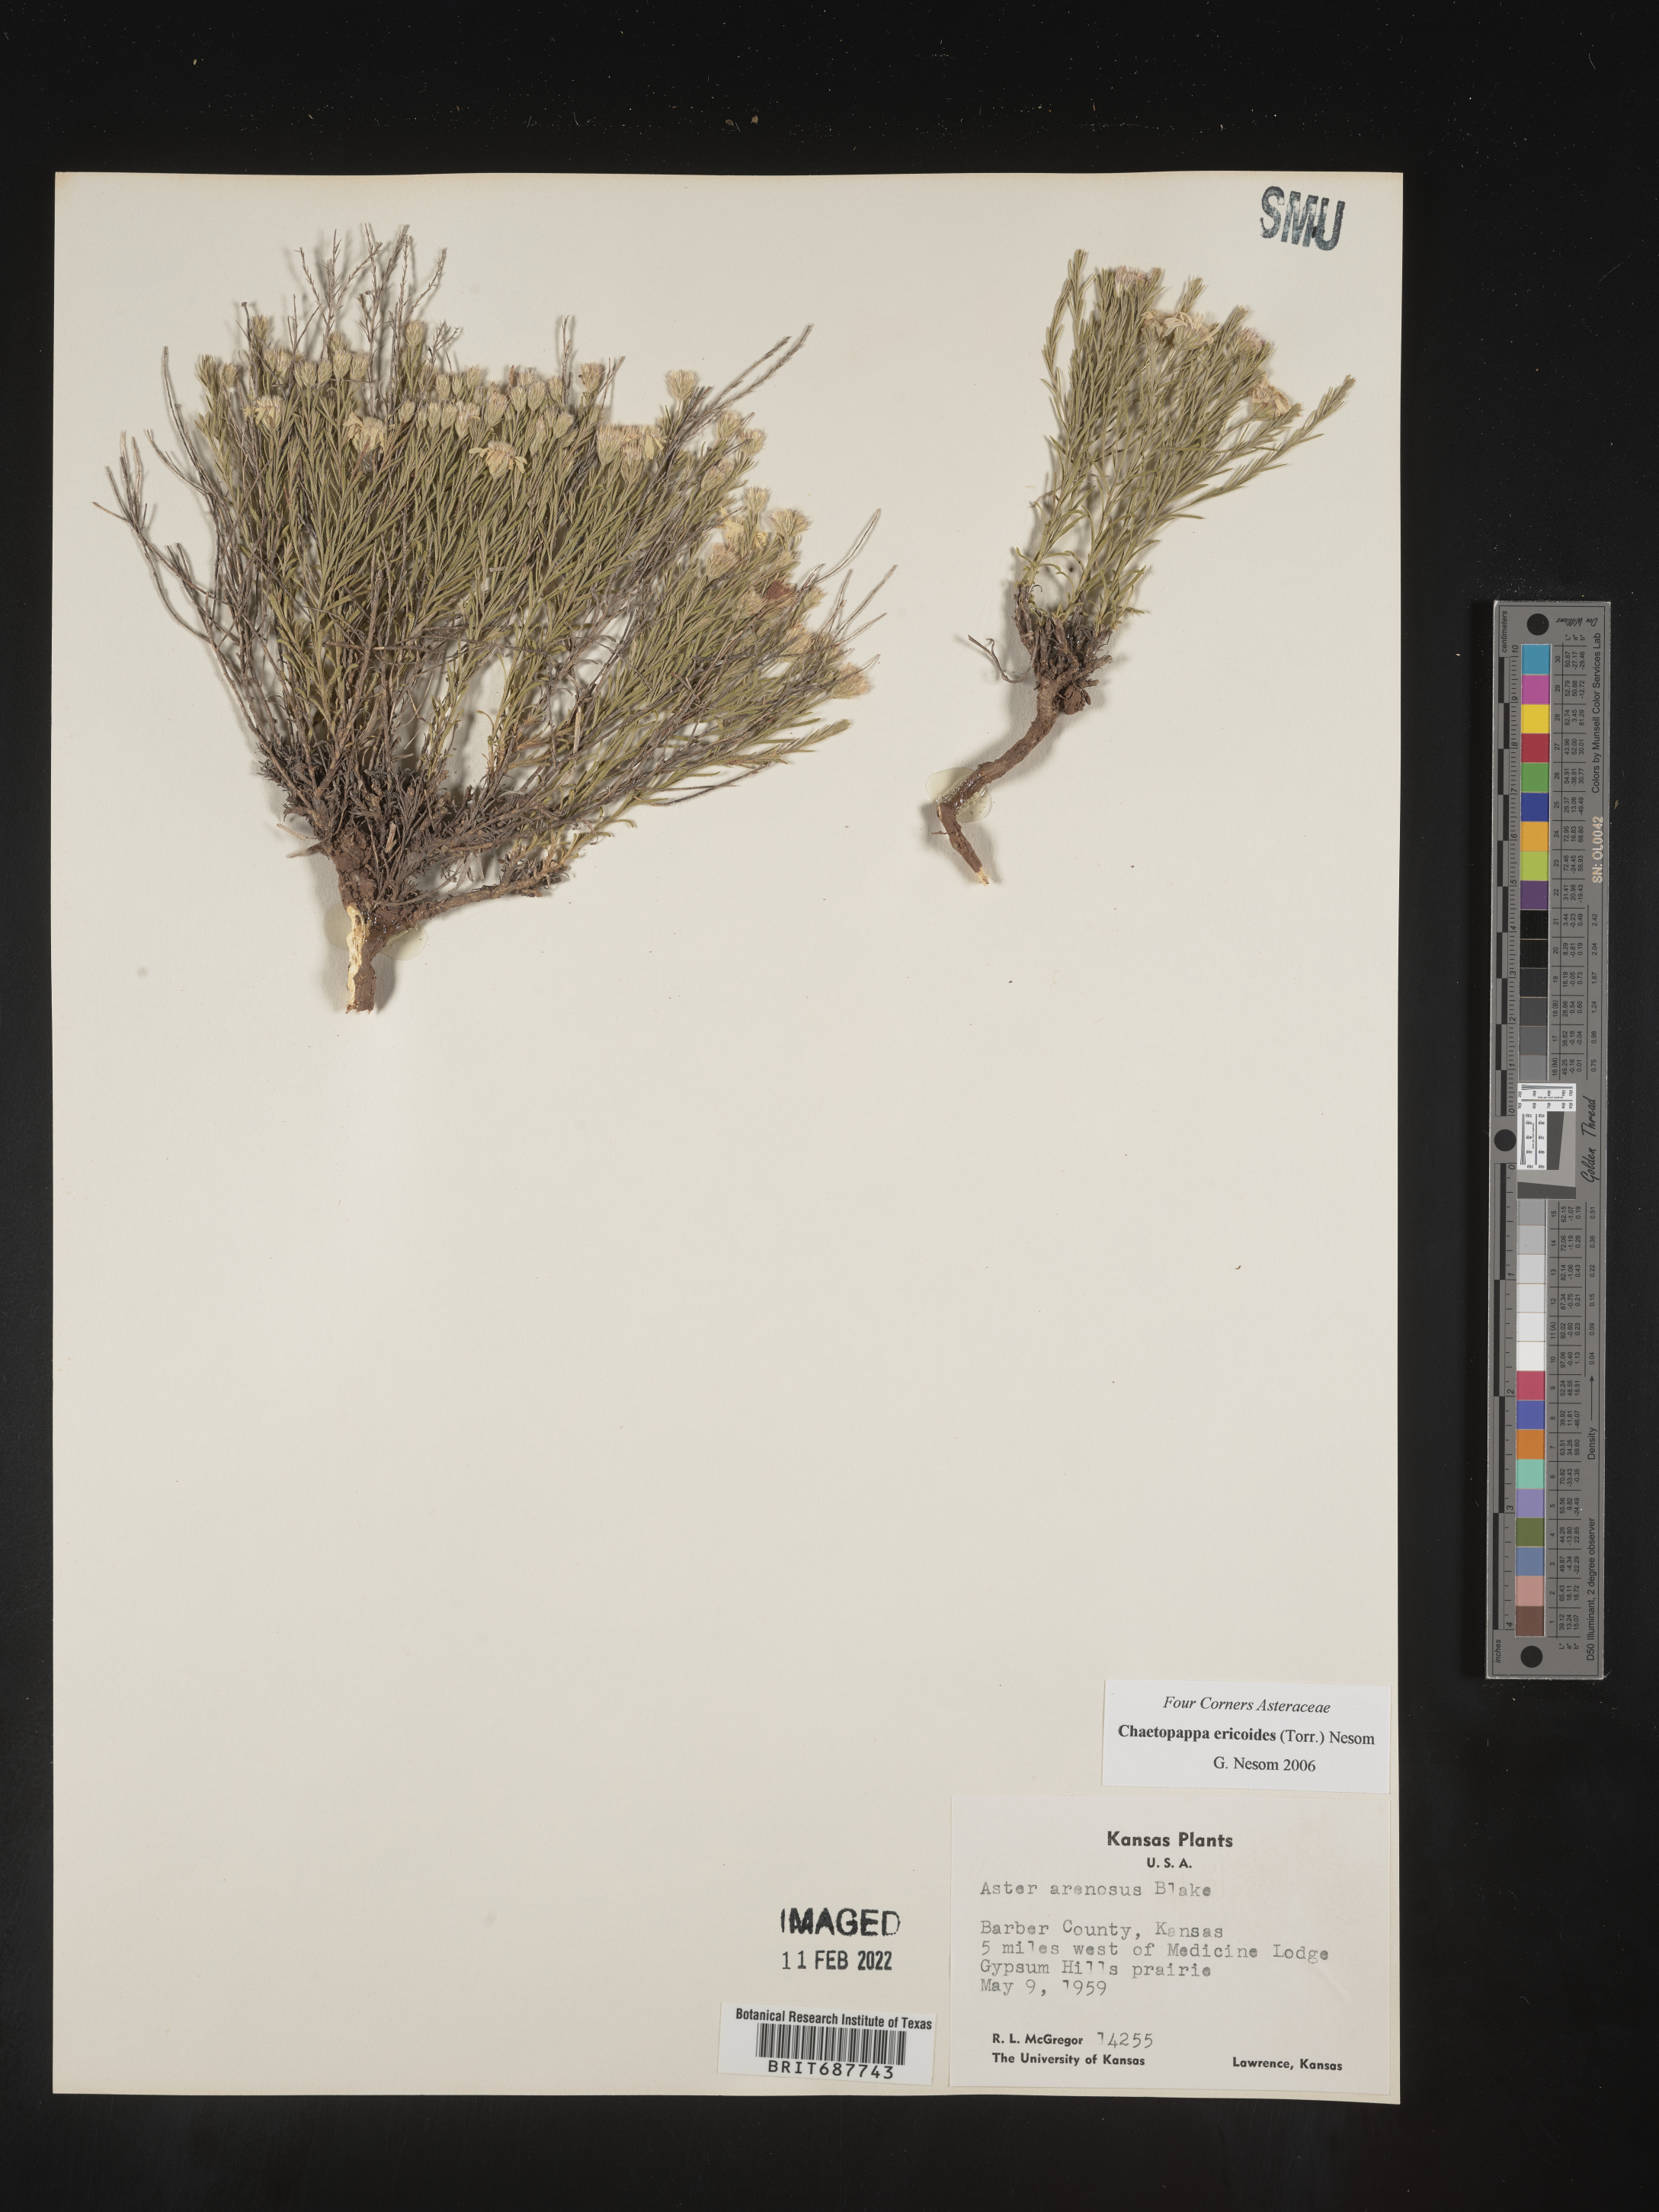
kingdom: Plantae
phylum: Tracheophyta
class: Magnoliopsida
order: Asterales
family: Asteraceae
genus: Chaetopappa
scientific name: Chaetopappa ericoides
